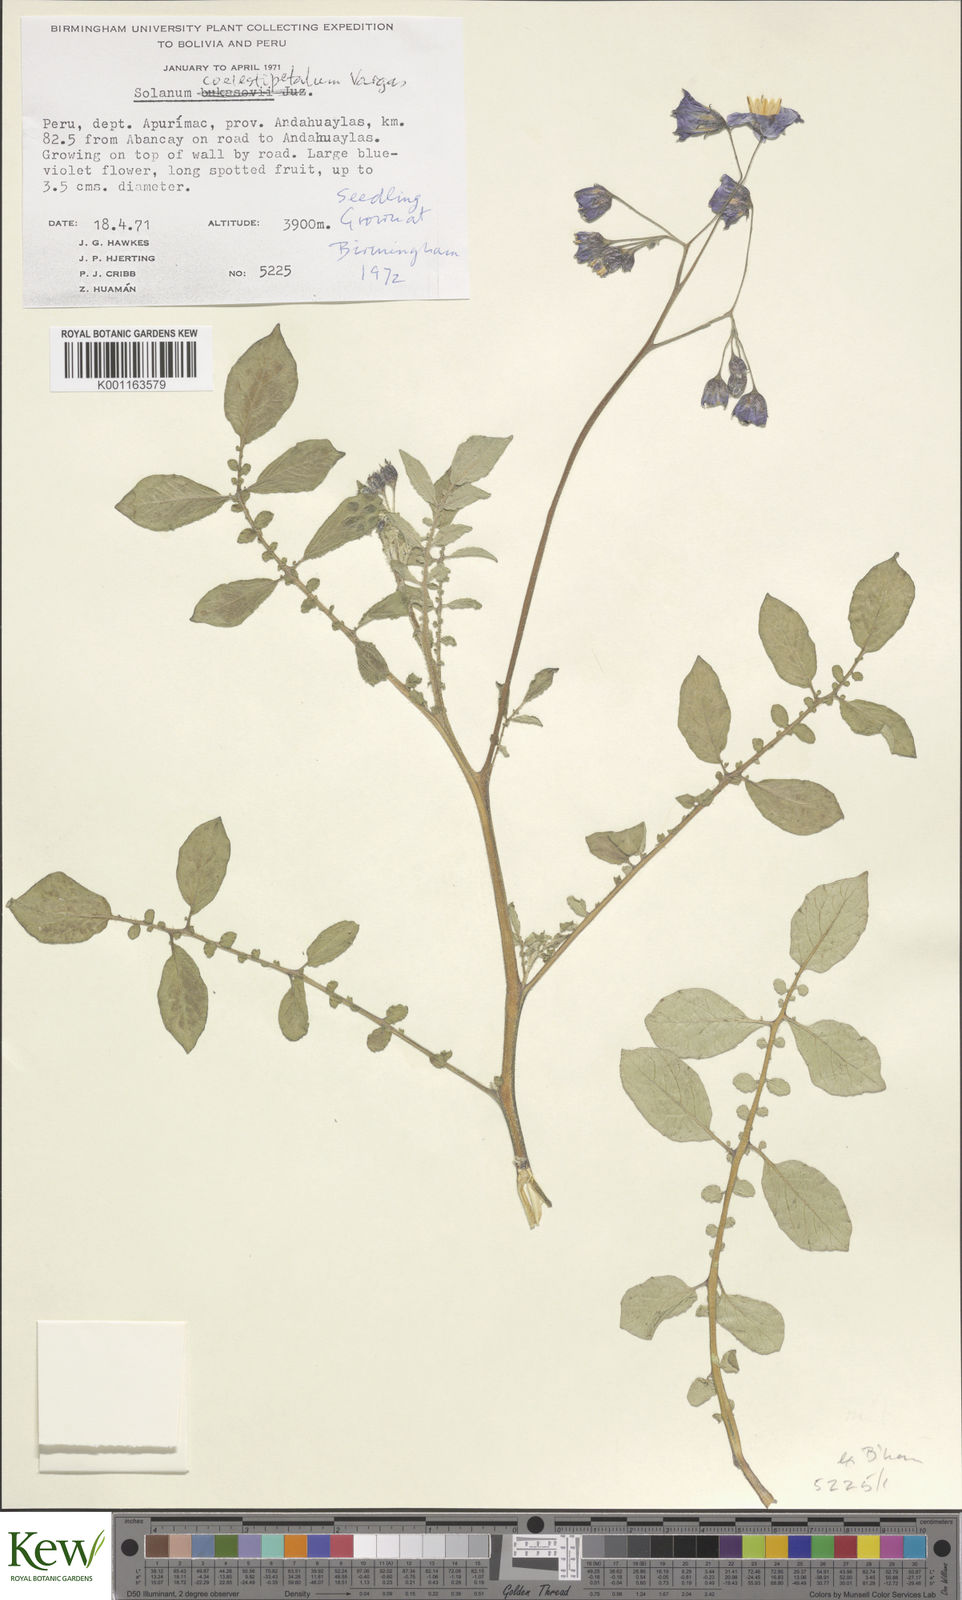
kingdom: Plantae
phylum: Tracheophyta
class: Magnoliopsida
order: Solanales
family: Solanaceae
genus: Solanum
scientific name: Solanum brevicaule
